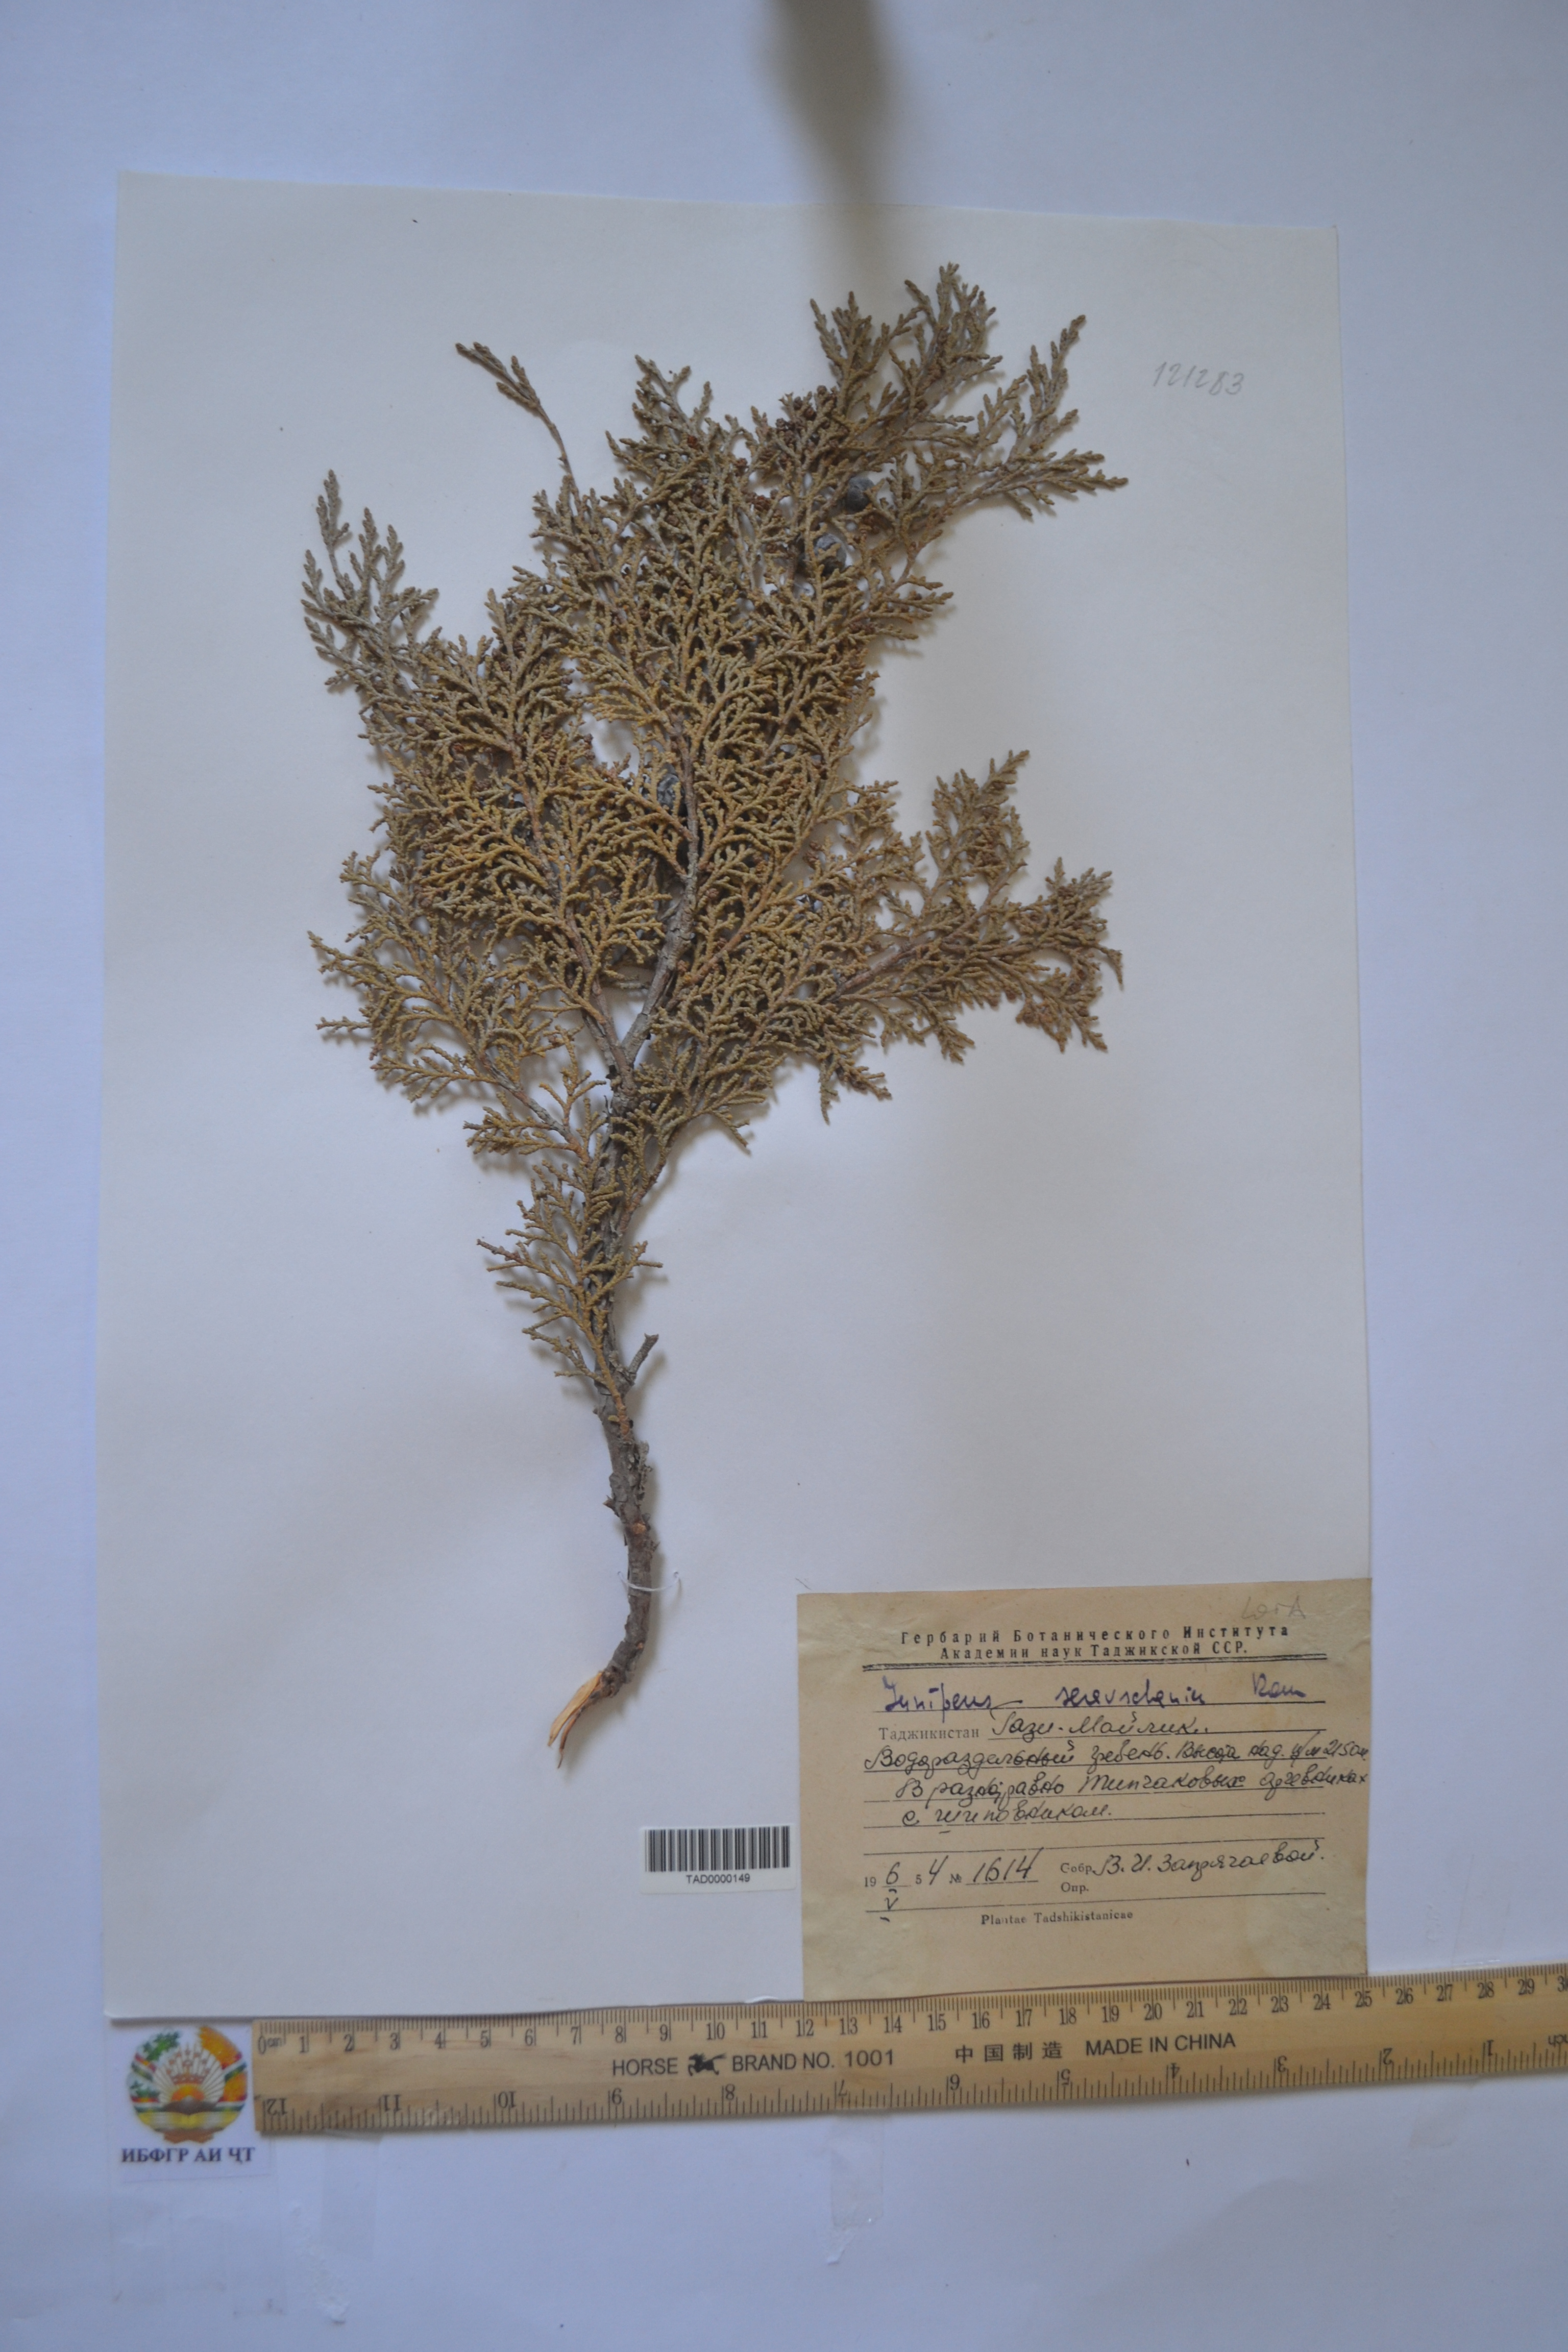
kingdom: Plantae
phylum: Tracheophyta
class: Pinopsida
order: Pinales
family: Cupressaceae
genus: Juniperus
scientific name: Juniperus excelsa
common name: Crimean juniper
